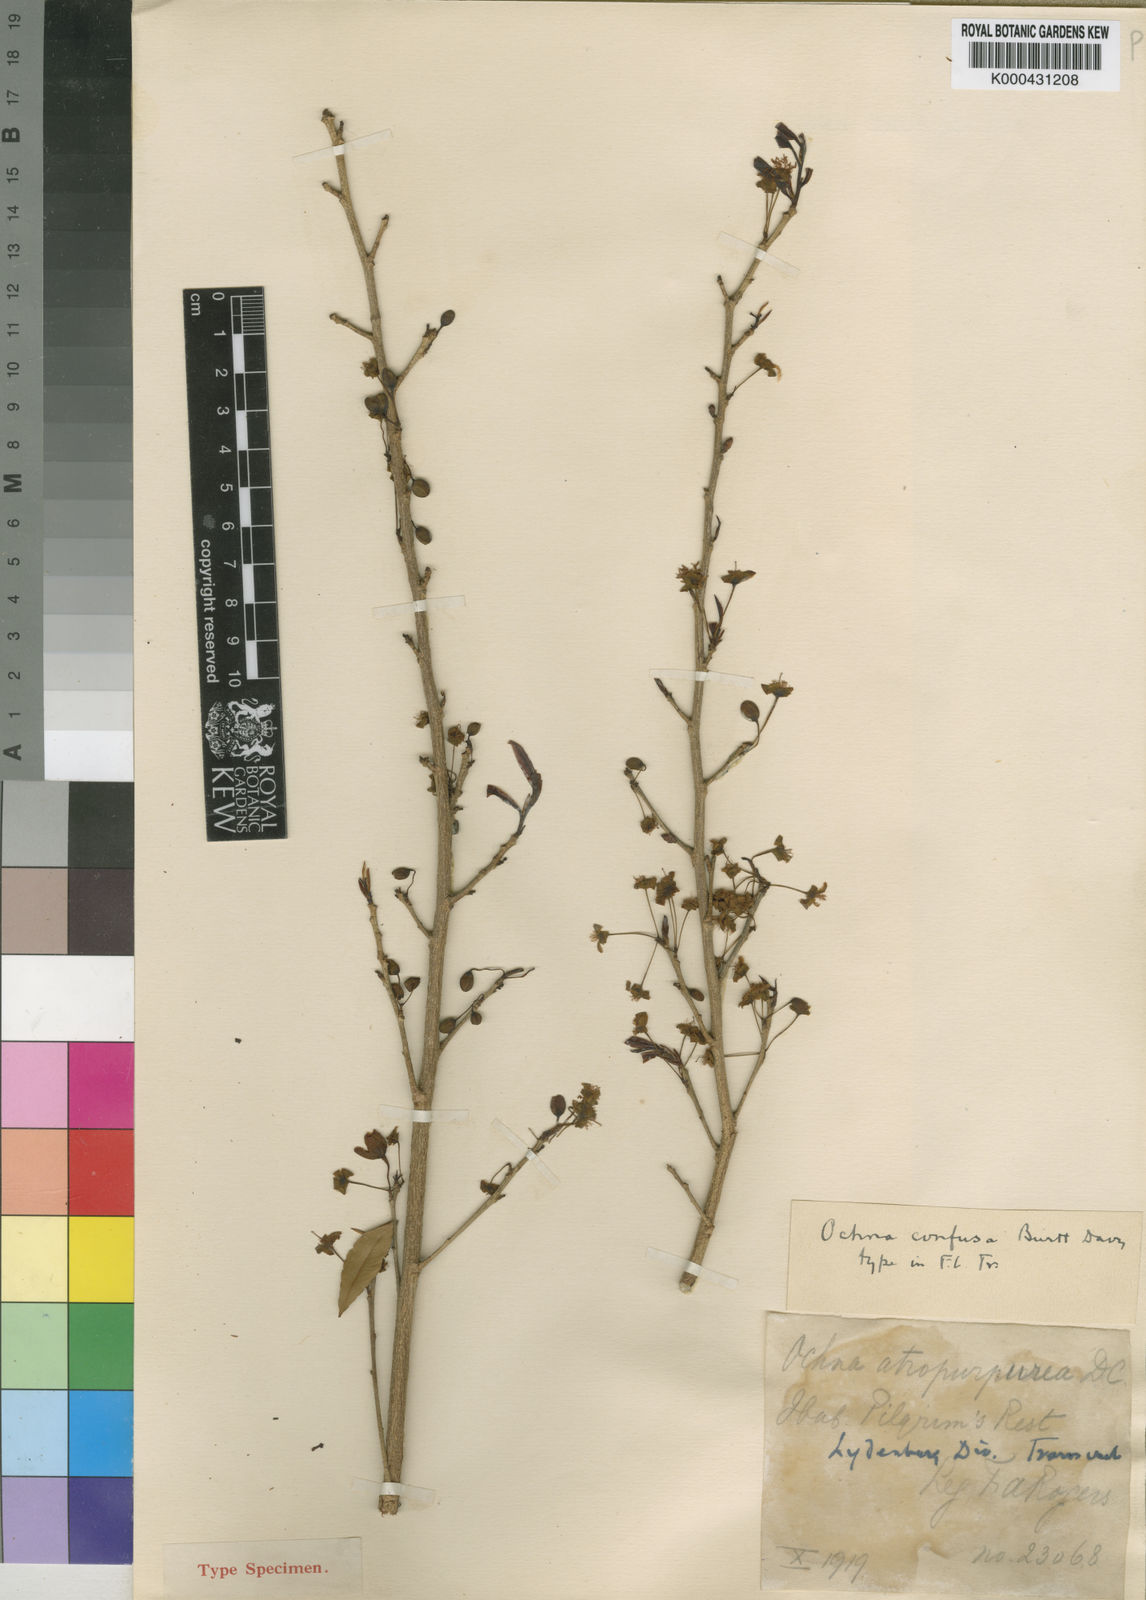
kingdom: Plantae
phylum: Tracheophyta
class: Magnoliopsida
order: Malpighiales
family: Ochnaceae
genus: Ochna
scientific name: Ochna confusa
